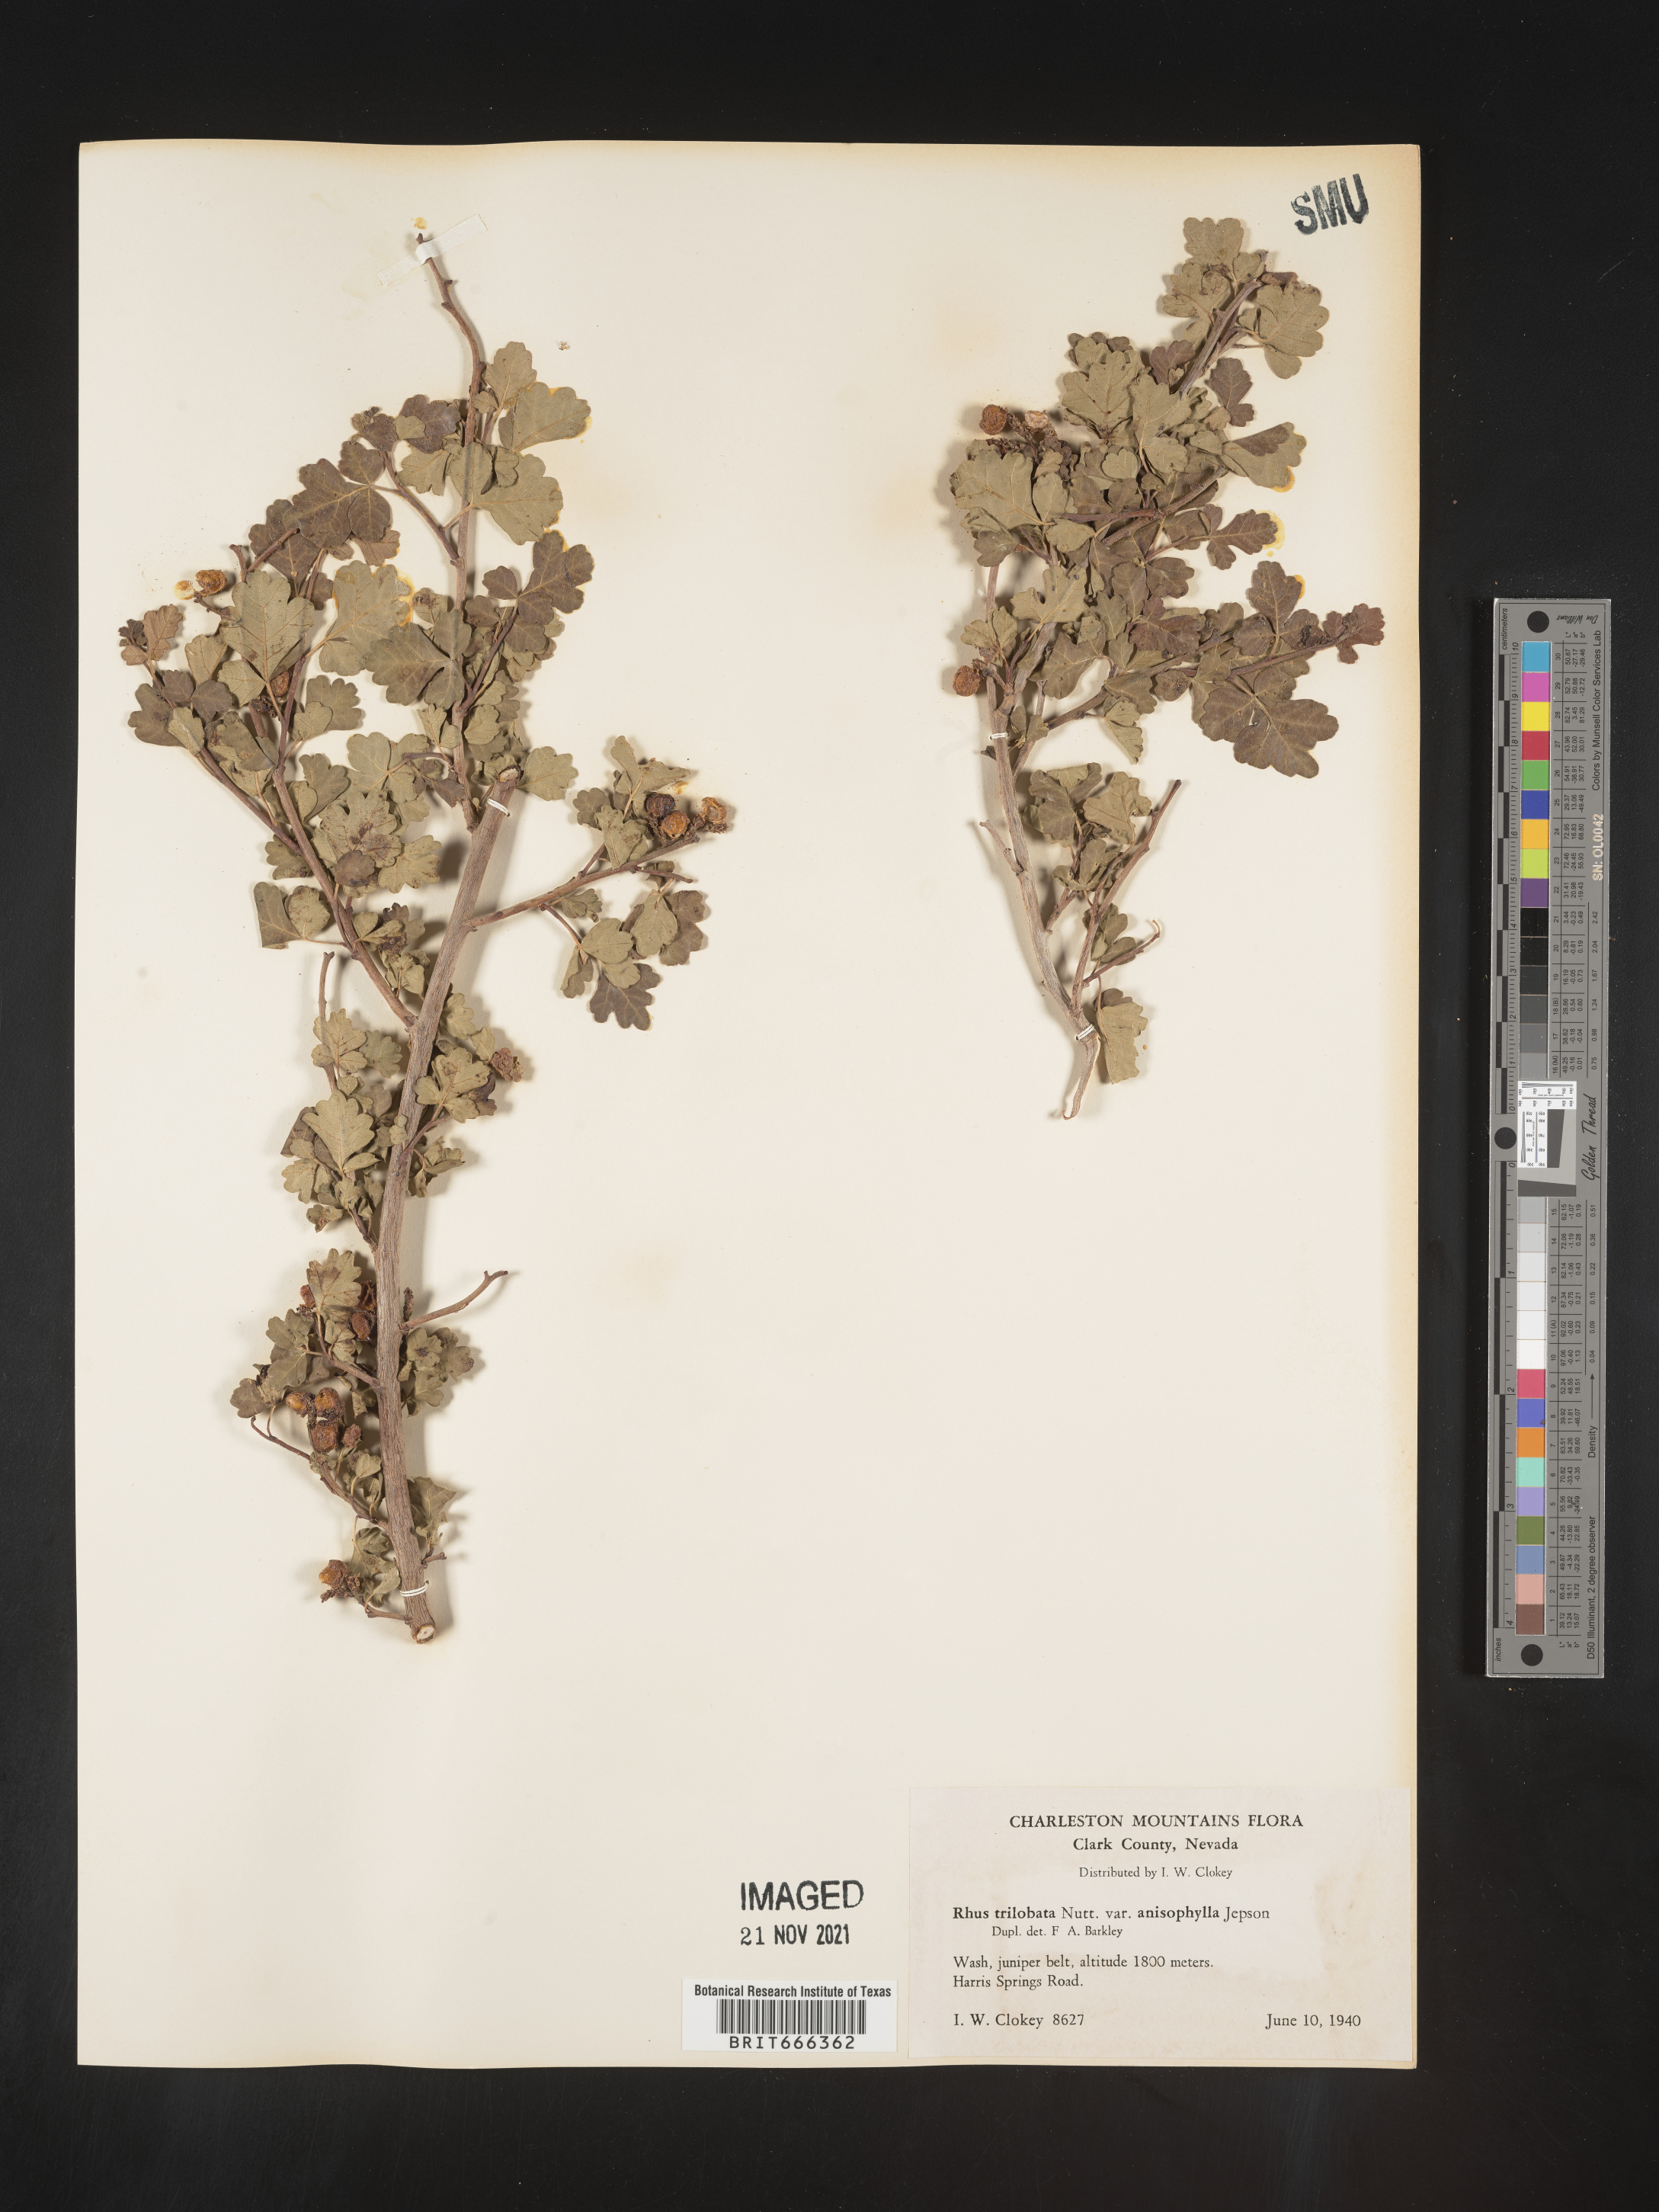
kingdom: Plantae
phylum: Tracheophyta
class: Magnoliopsida
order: Sapindales
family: Anacardiaceae
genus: Rhus
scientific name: Rhus trilobata
